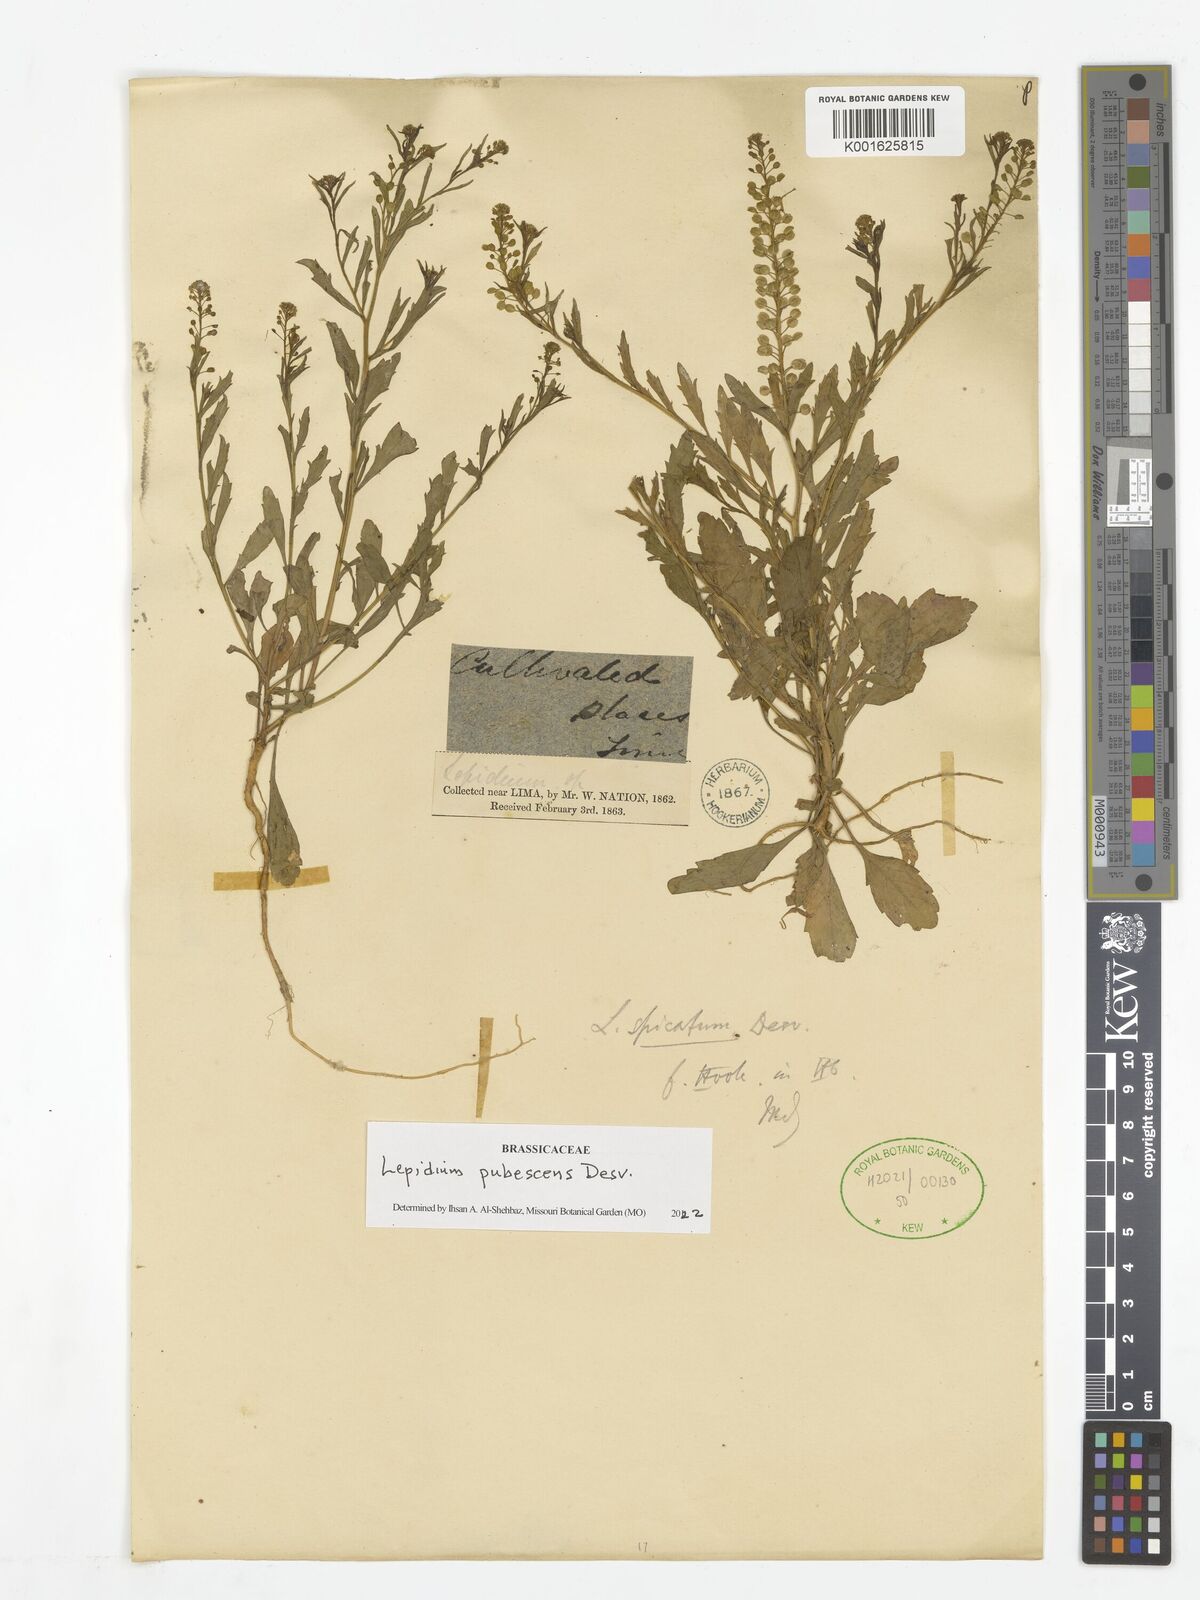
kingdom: Plantae
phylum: Tracheophyta
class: Magnoliopsida
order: Brassicales
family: Brassicaceae
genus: Lepidium
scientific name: Lepidium pubescens
